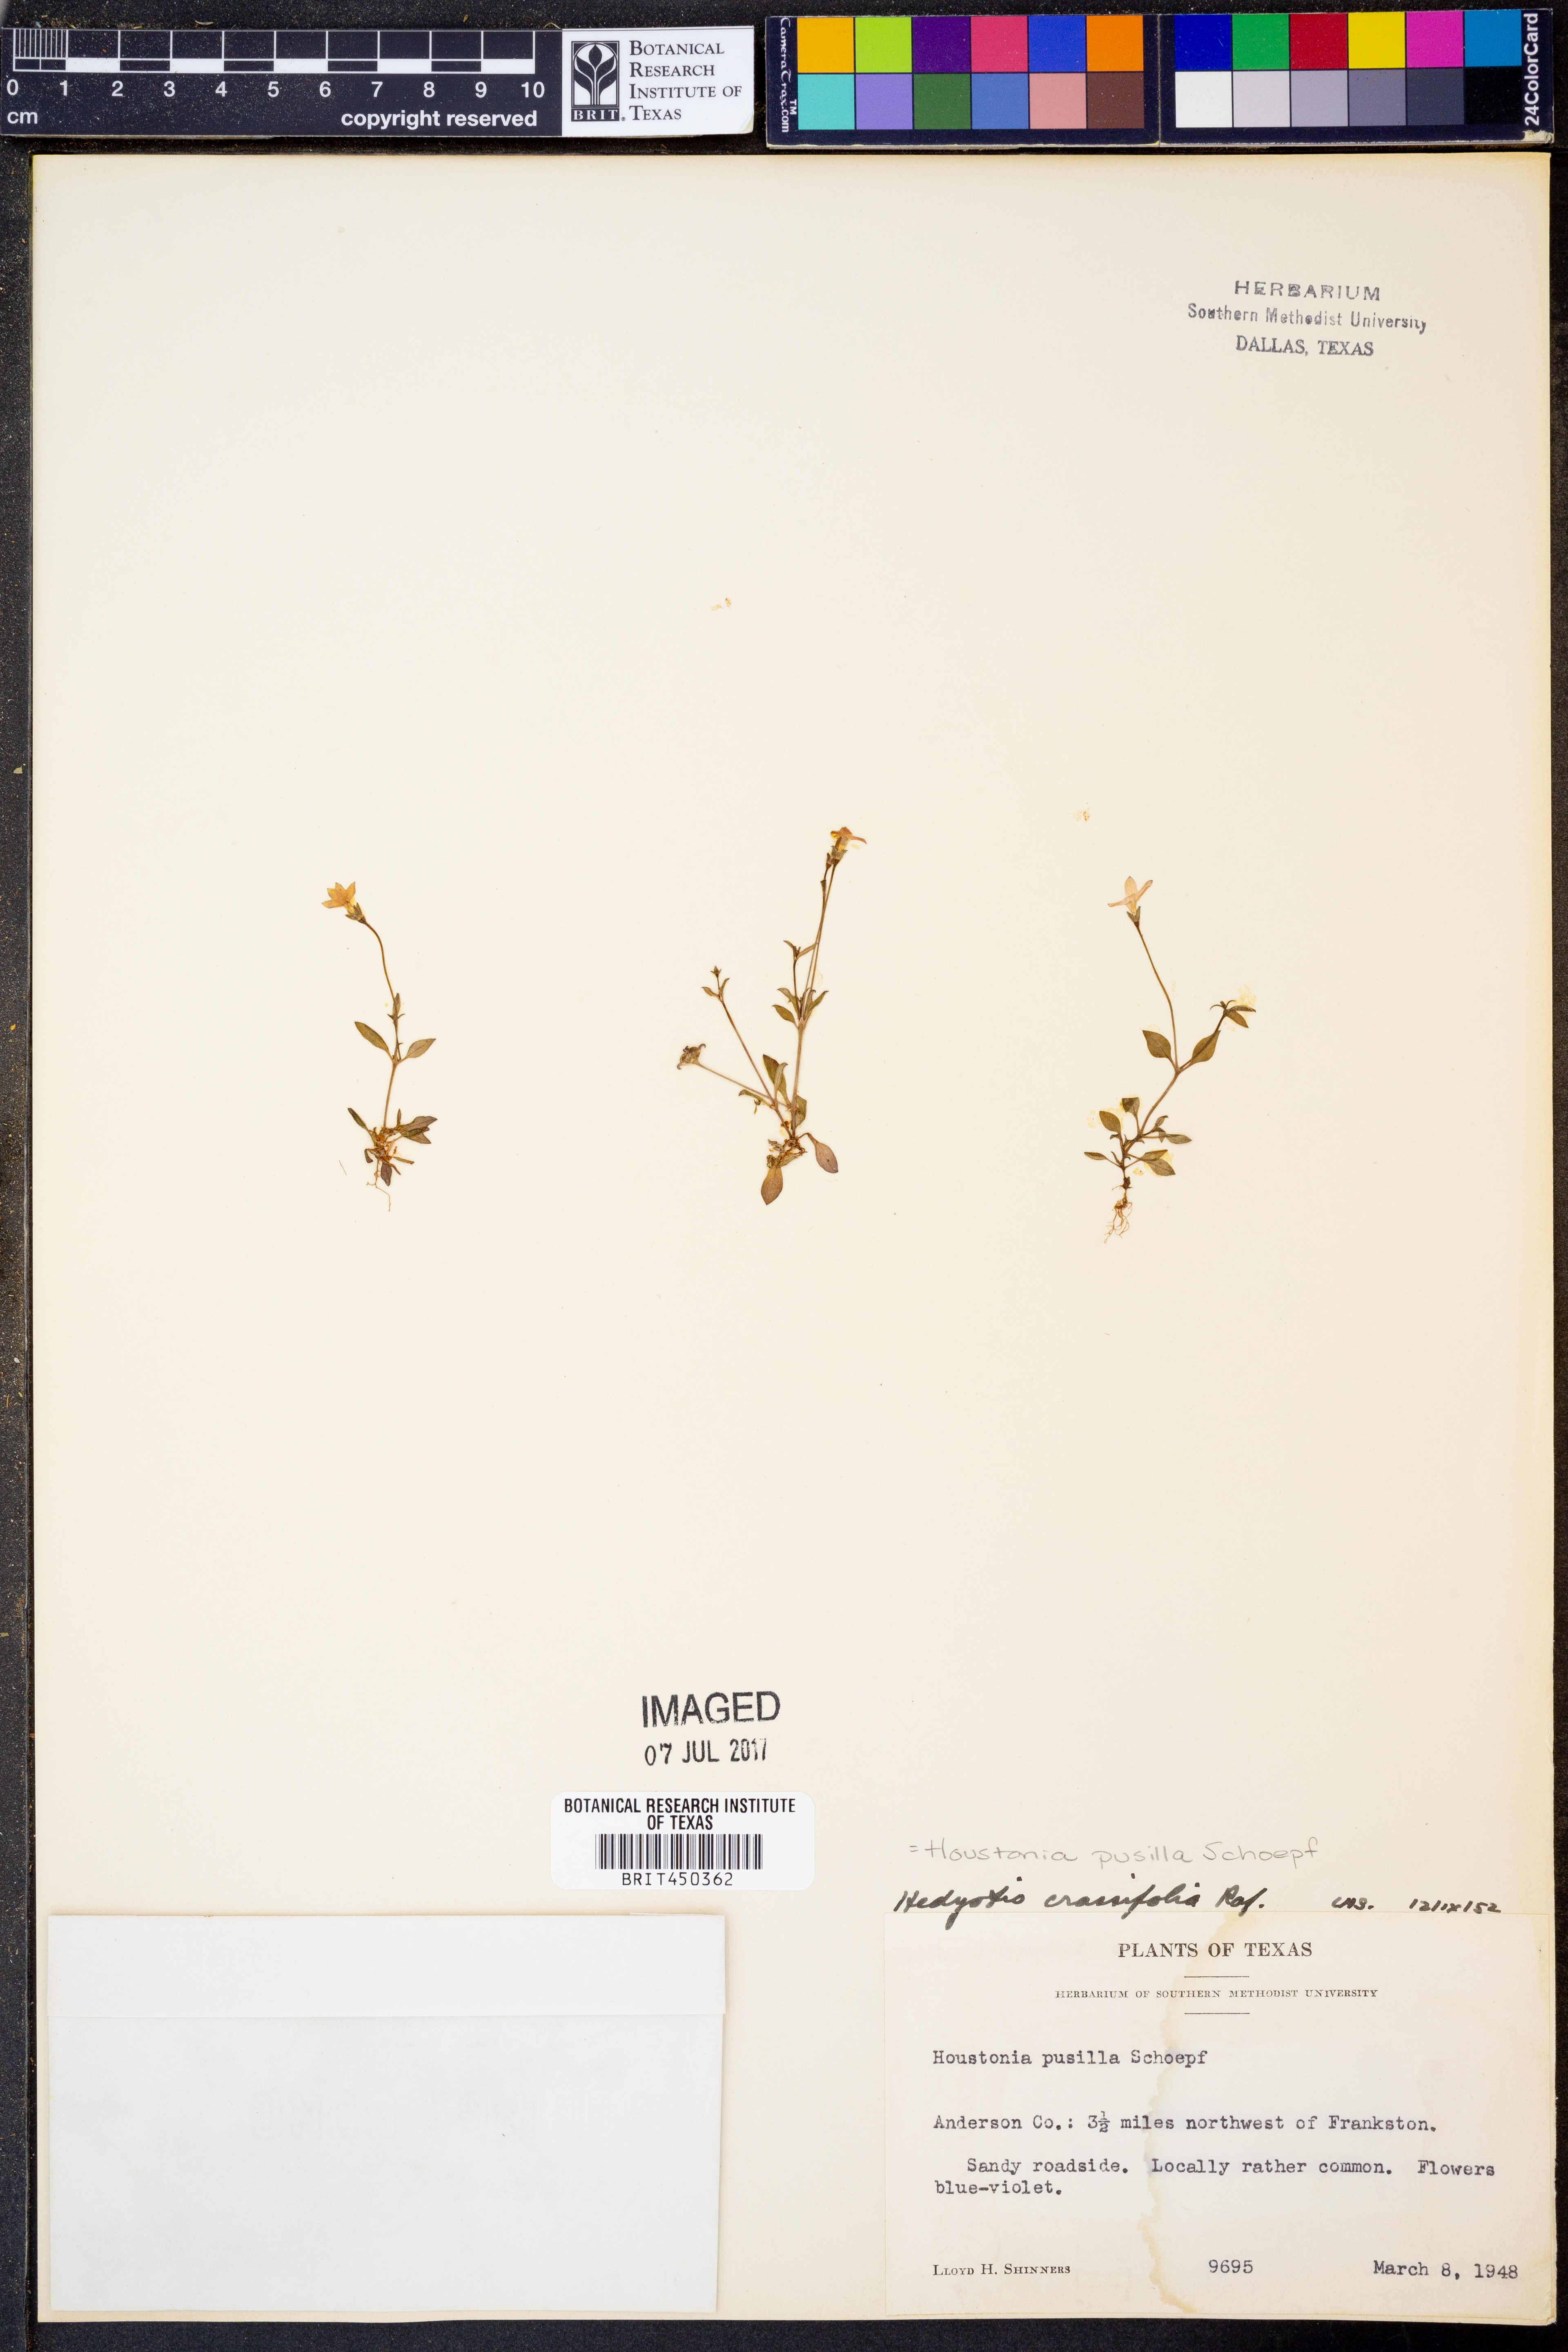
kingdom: Plantae
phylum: Tracheophyta
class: Magnoliopsida
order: Gentianales
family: Rubiaceae
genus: Houstonia
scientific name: Houstonia pusilla
